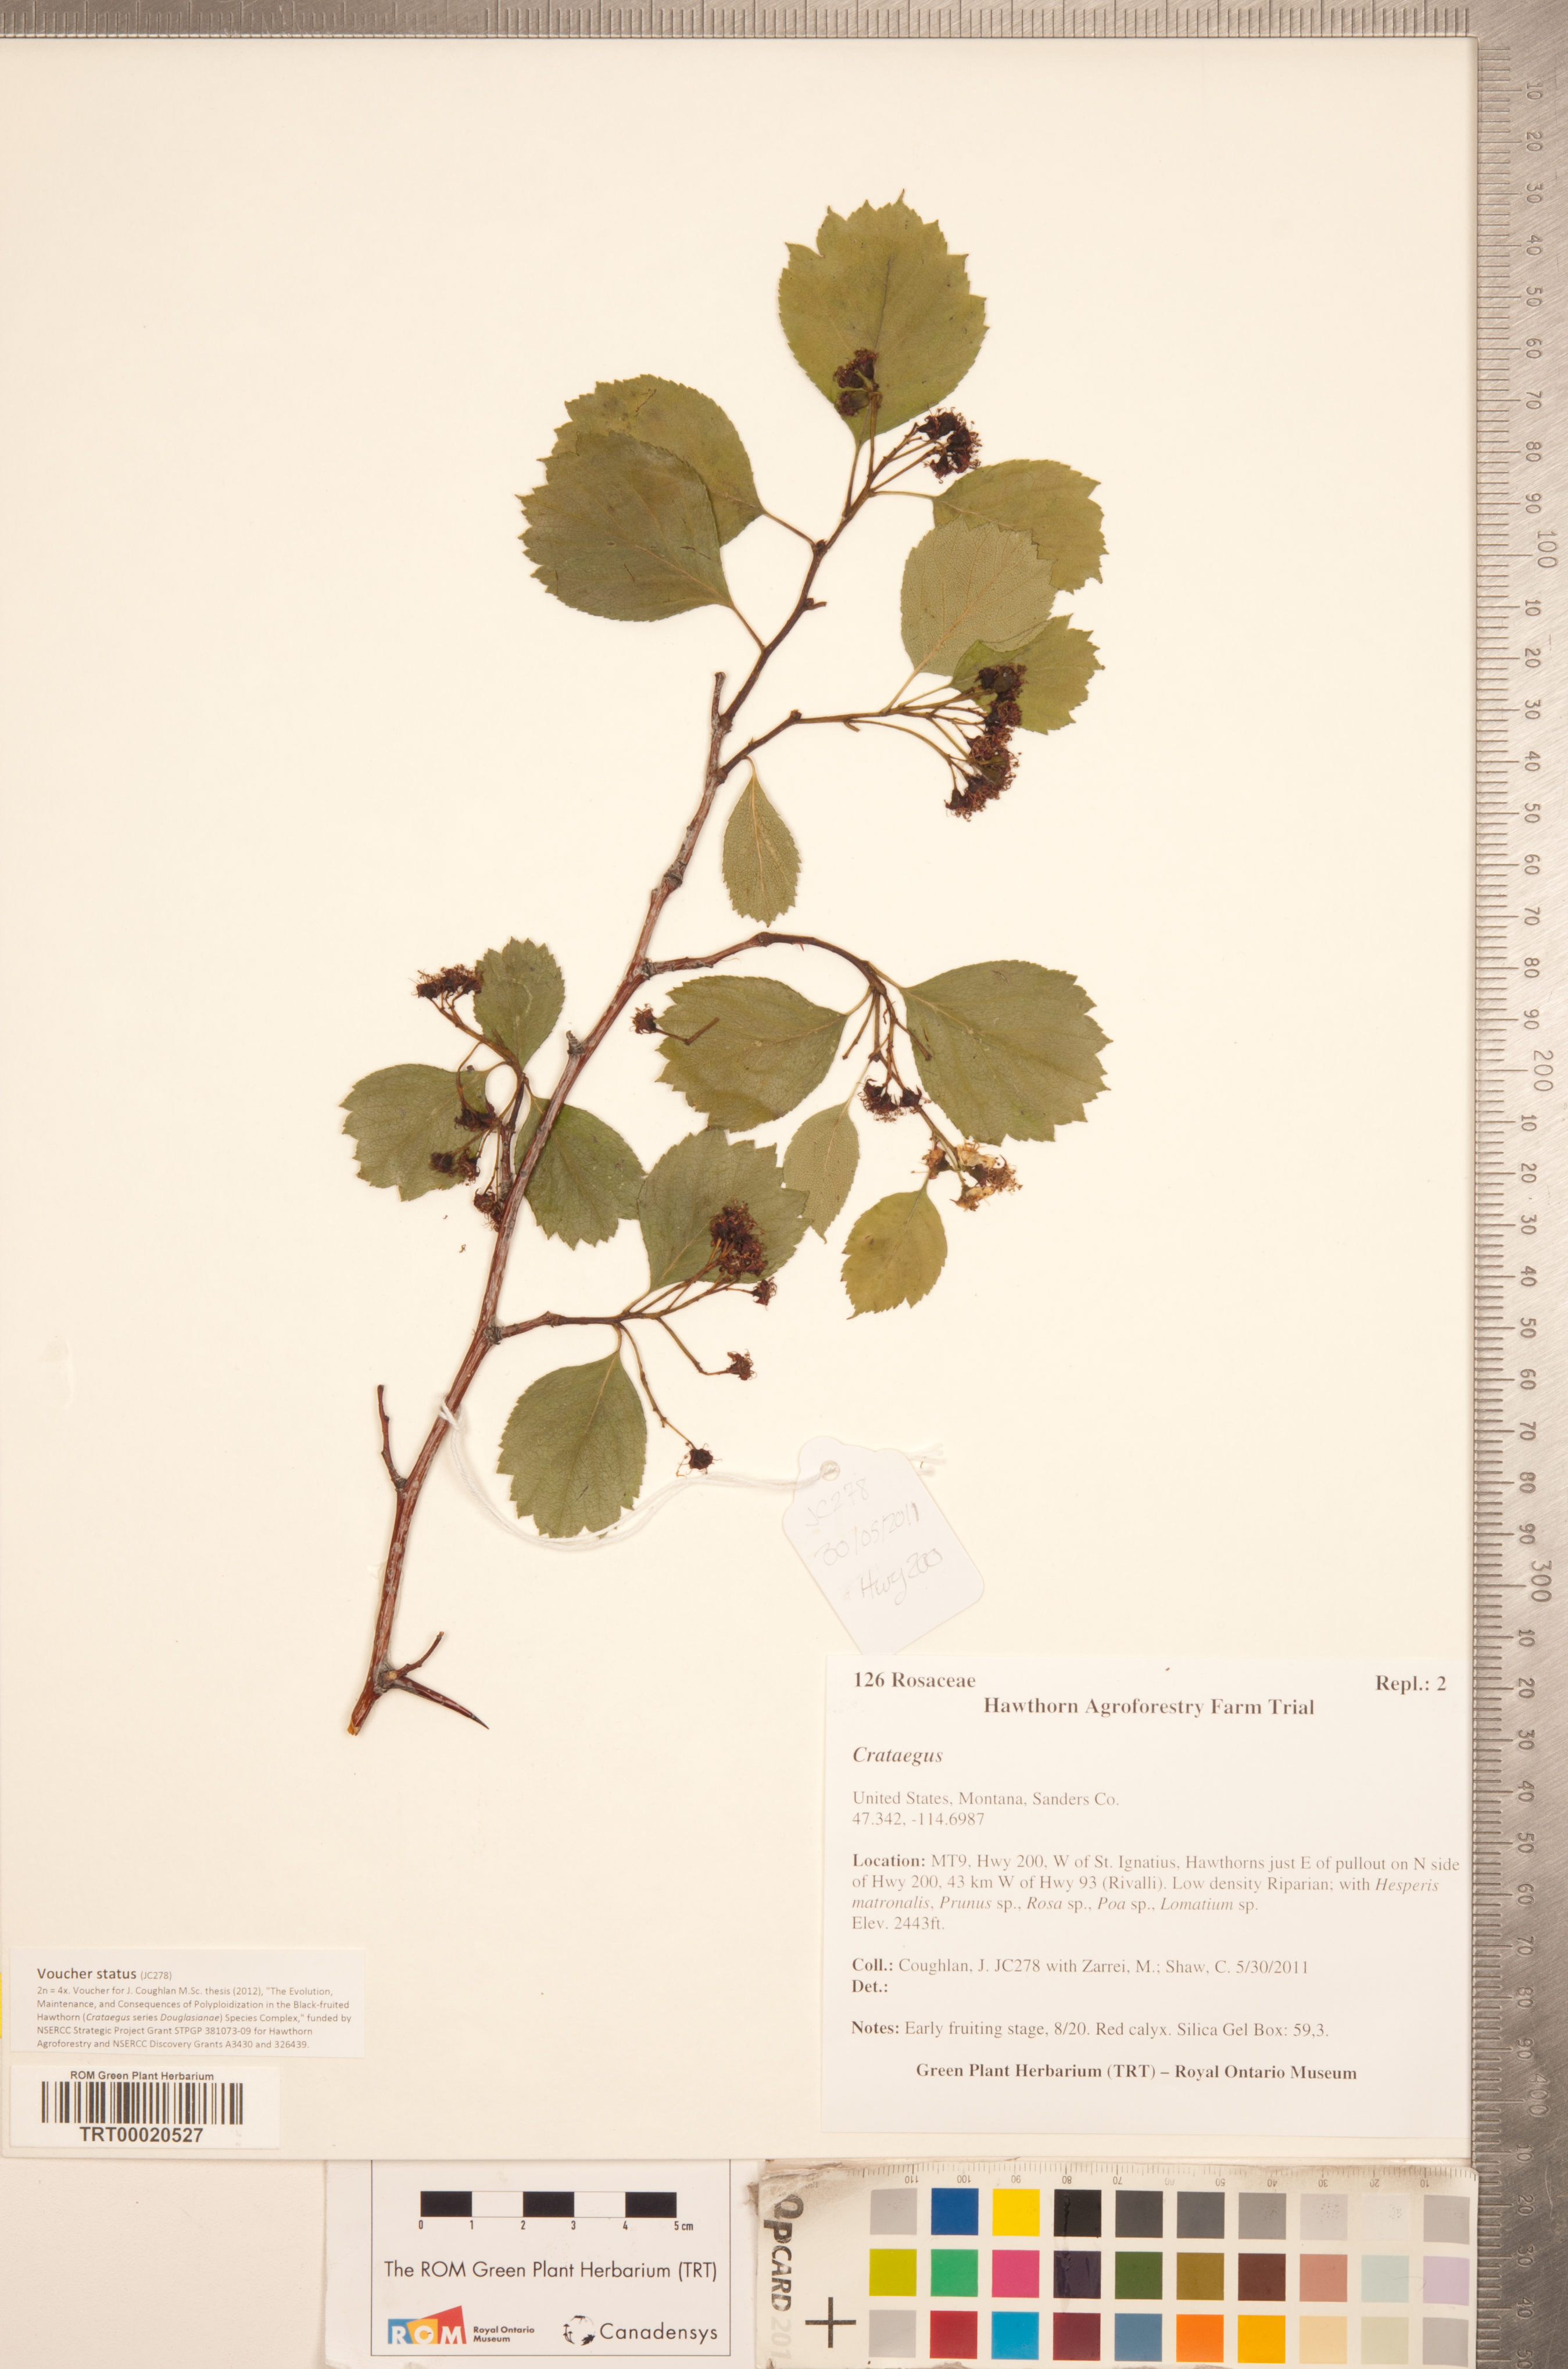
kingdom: Plantae
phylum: Tracheophyta
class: Magnoliopsida
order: Rosales
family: Rosaceae
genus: Crataegus
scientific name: Crataegus
